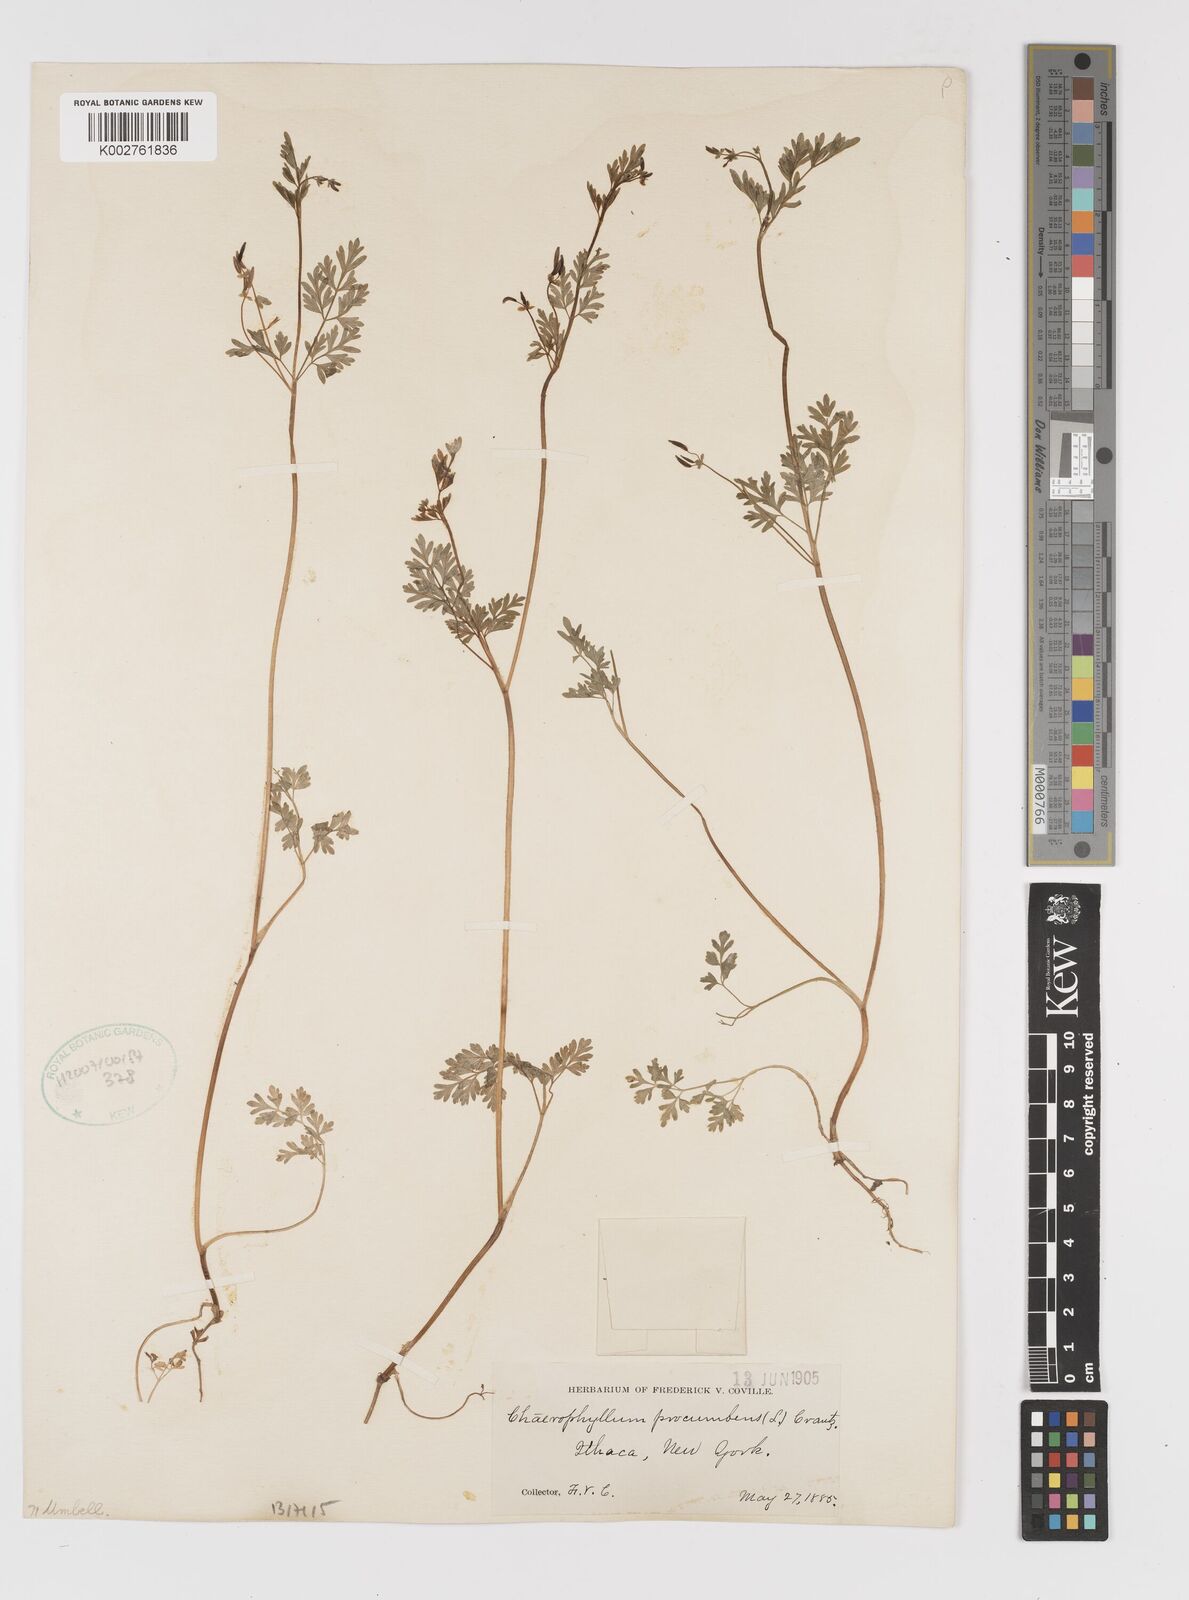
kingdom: Plantae
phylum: Tracheophyta
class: Magnoliopsida
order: Apiales
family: Apiaceae
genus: Chaerophyllum
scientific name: Chaerophyllum procumbens
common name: Spreading chervil
